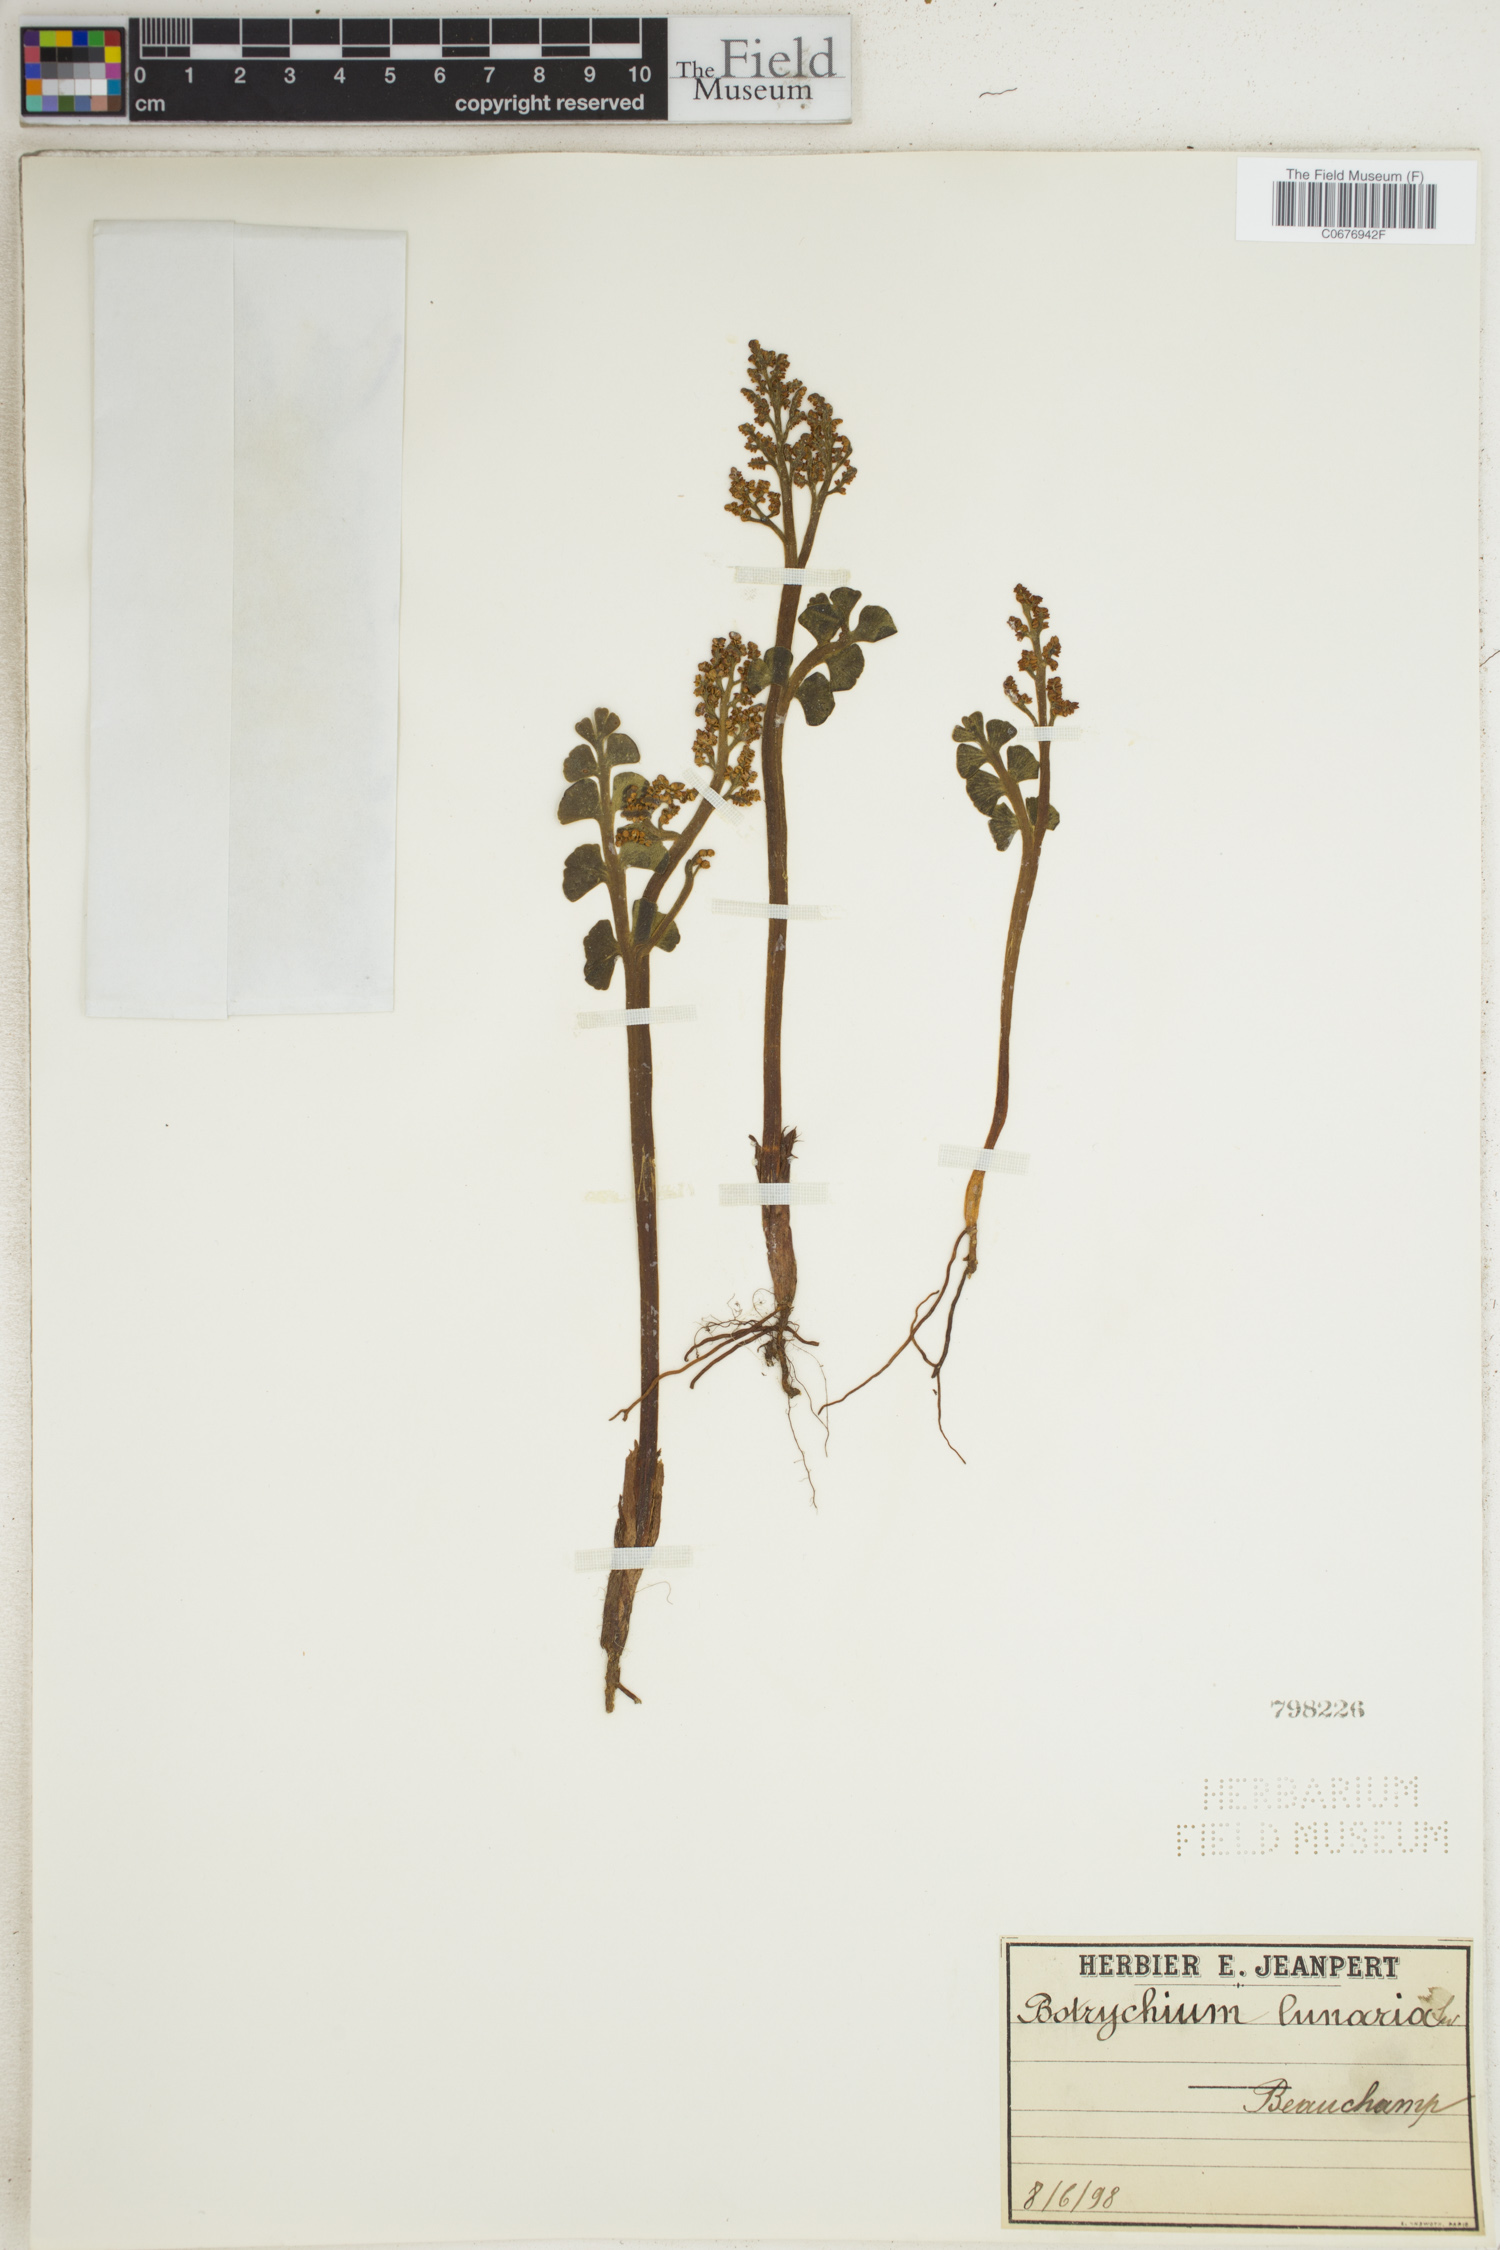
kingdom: Plantae
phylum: Tracheophyta
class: Polypodiopsida
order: Ophioglossales
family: Ophioglossaceae
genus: Botrychium
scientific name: Botrychium lunaria
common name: Moonwort
